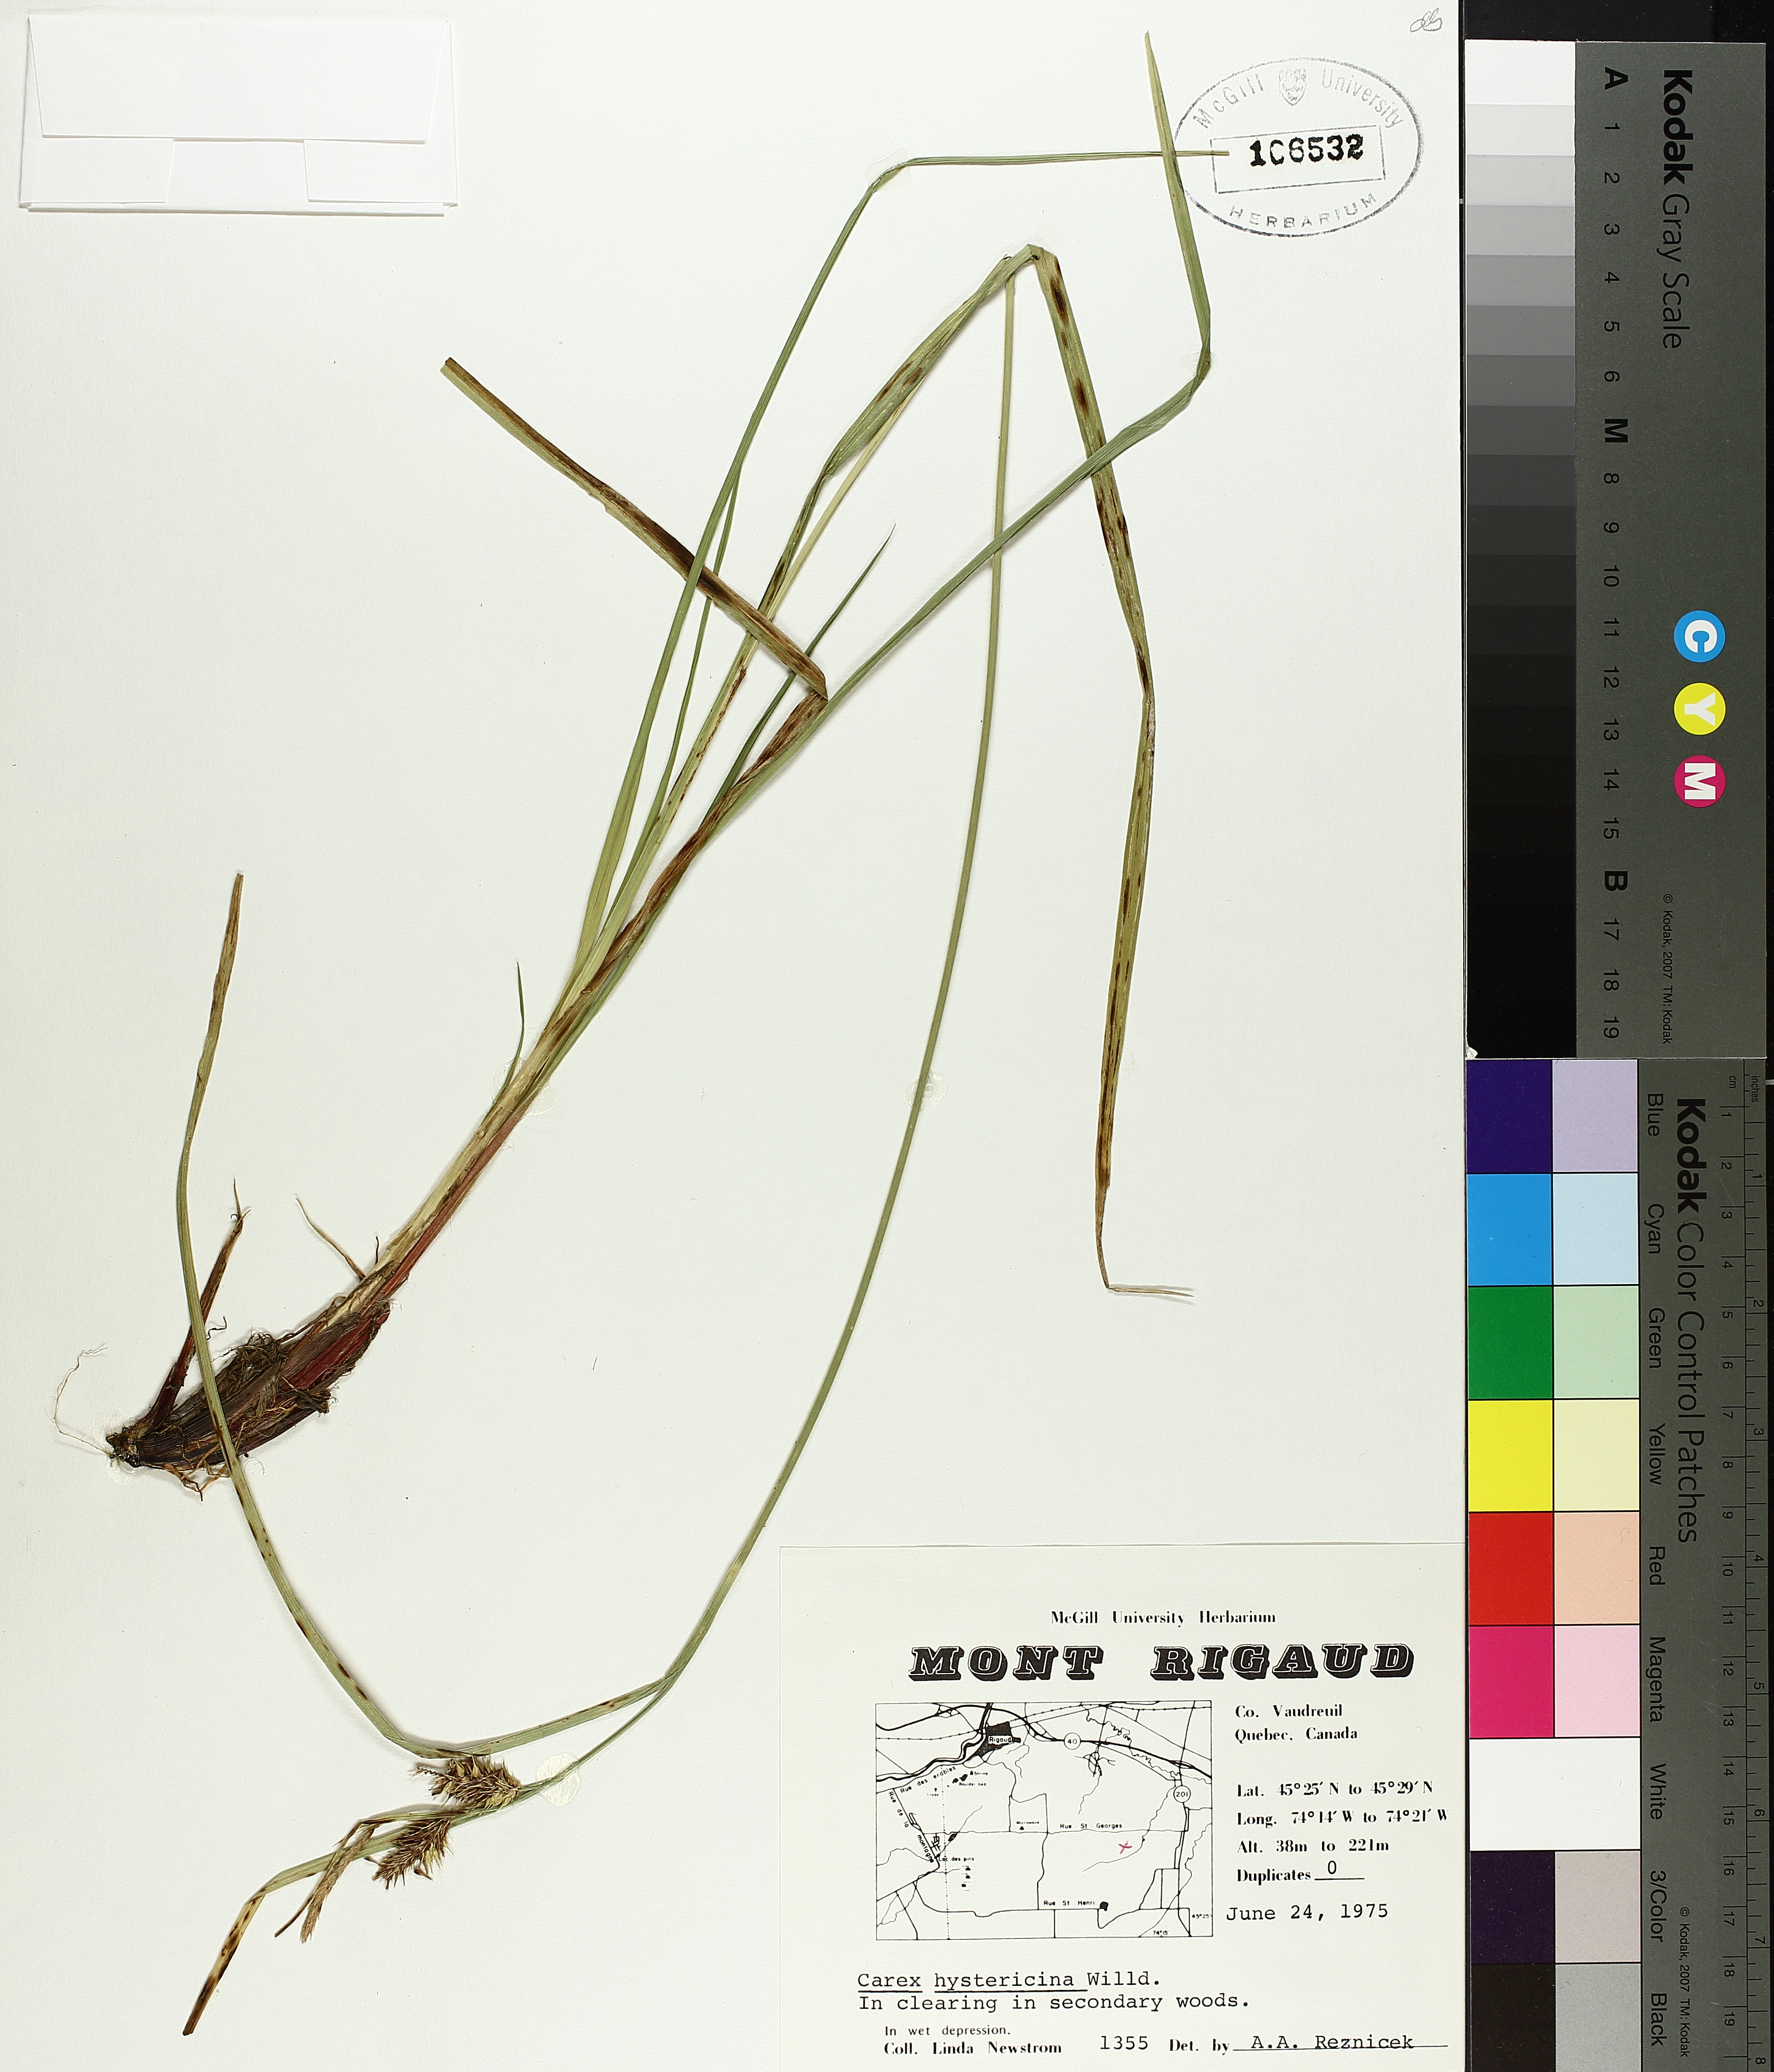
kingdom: Plantae
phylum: Tracheophyta
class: Liliopsida
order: Poales
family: Cyperaceae
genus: Carex
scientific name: Carex hystericina
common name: Bottlebrush sedge
